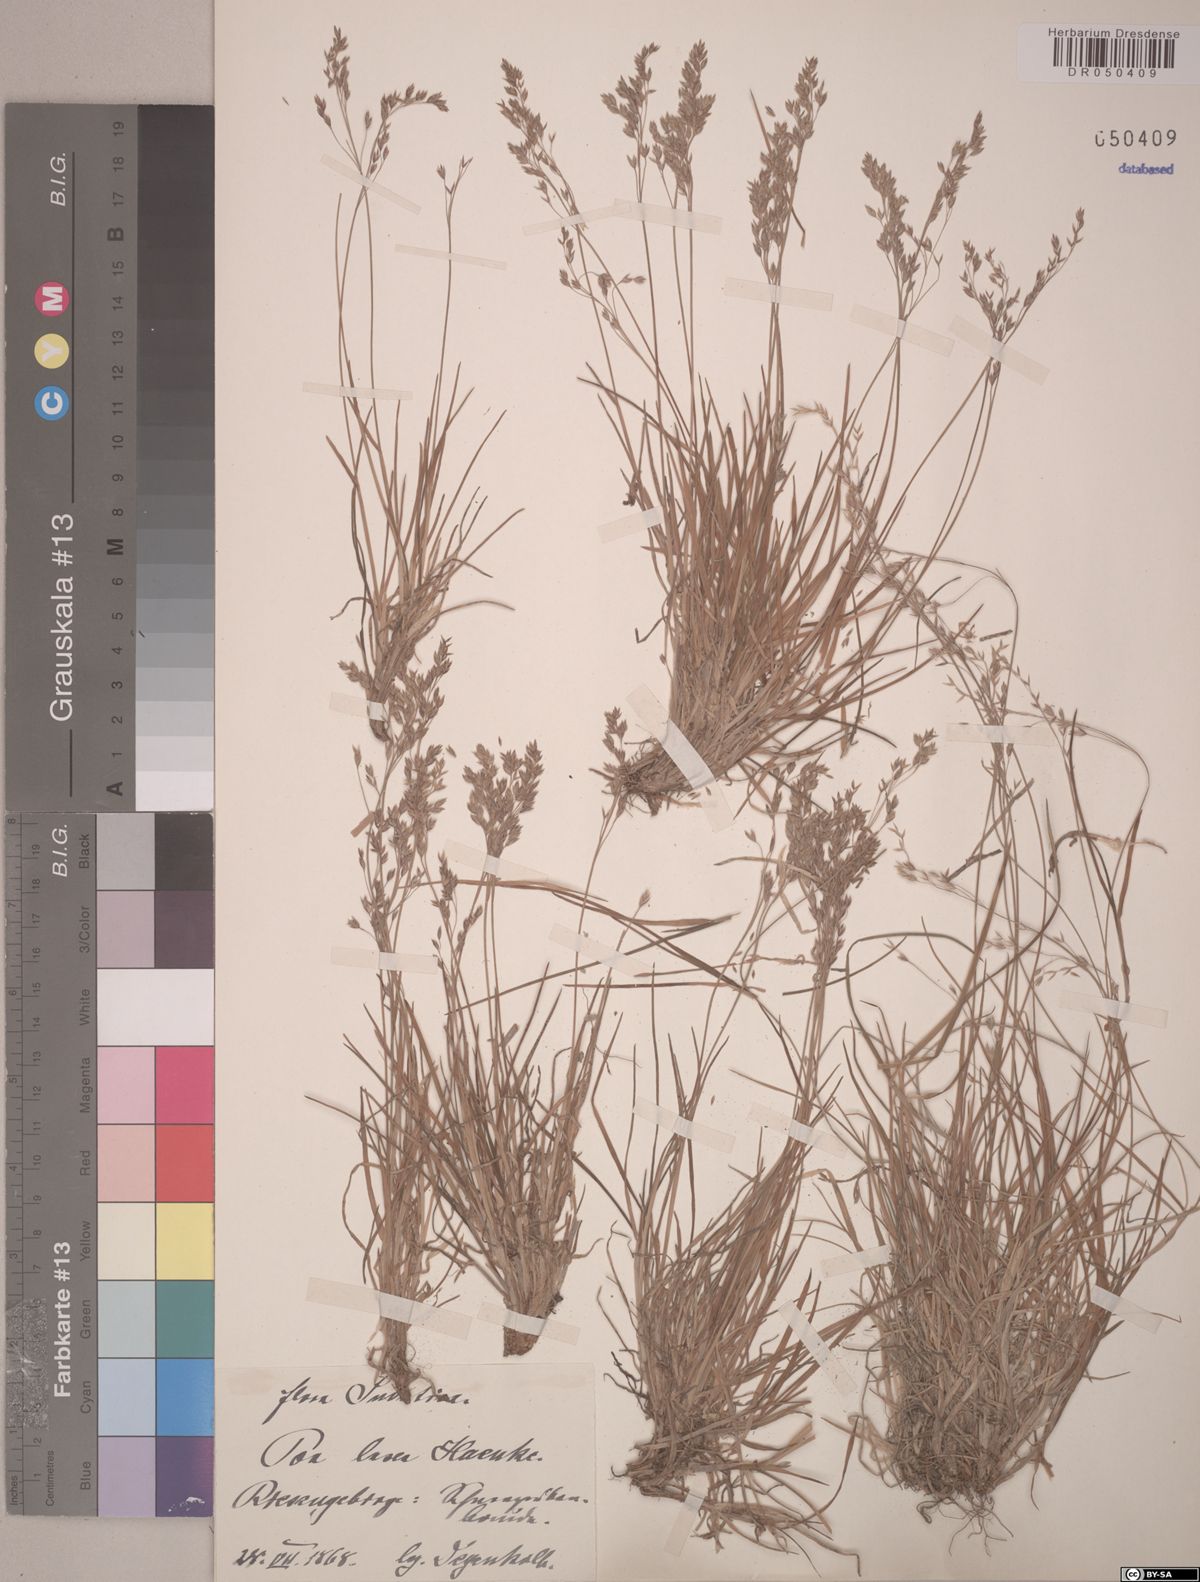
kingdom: Plantae
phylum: Tracheophyta
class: Liliopsida
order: Poales
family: Poaceae
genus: Poa
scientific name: Poa laxa
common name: Lax bluegrass
